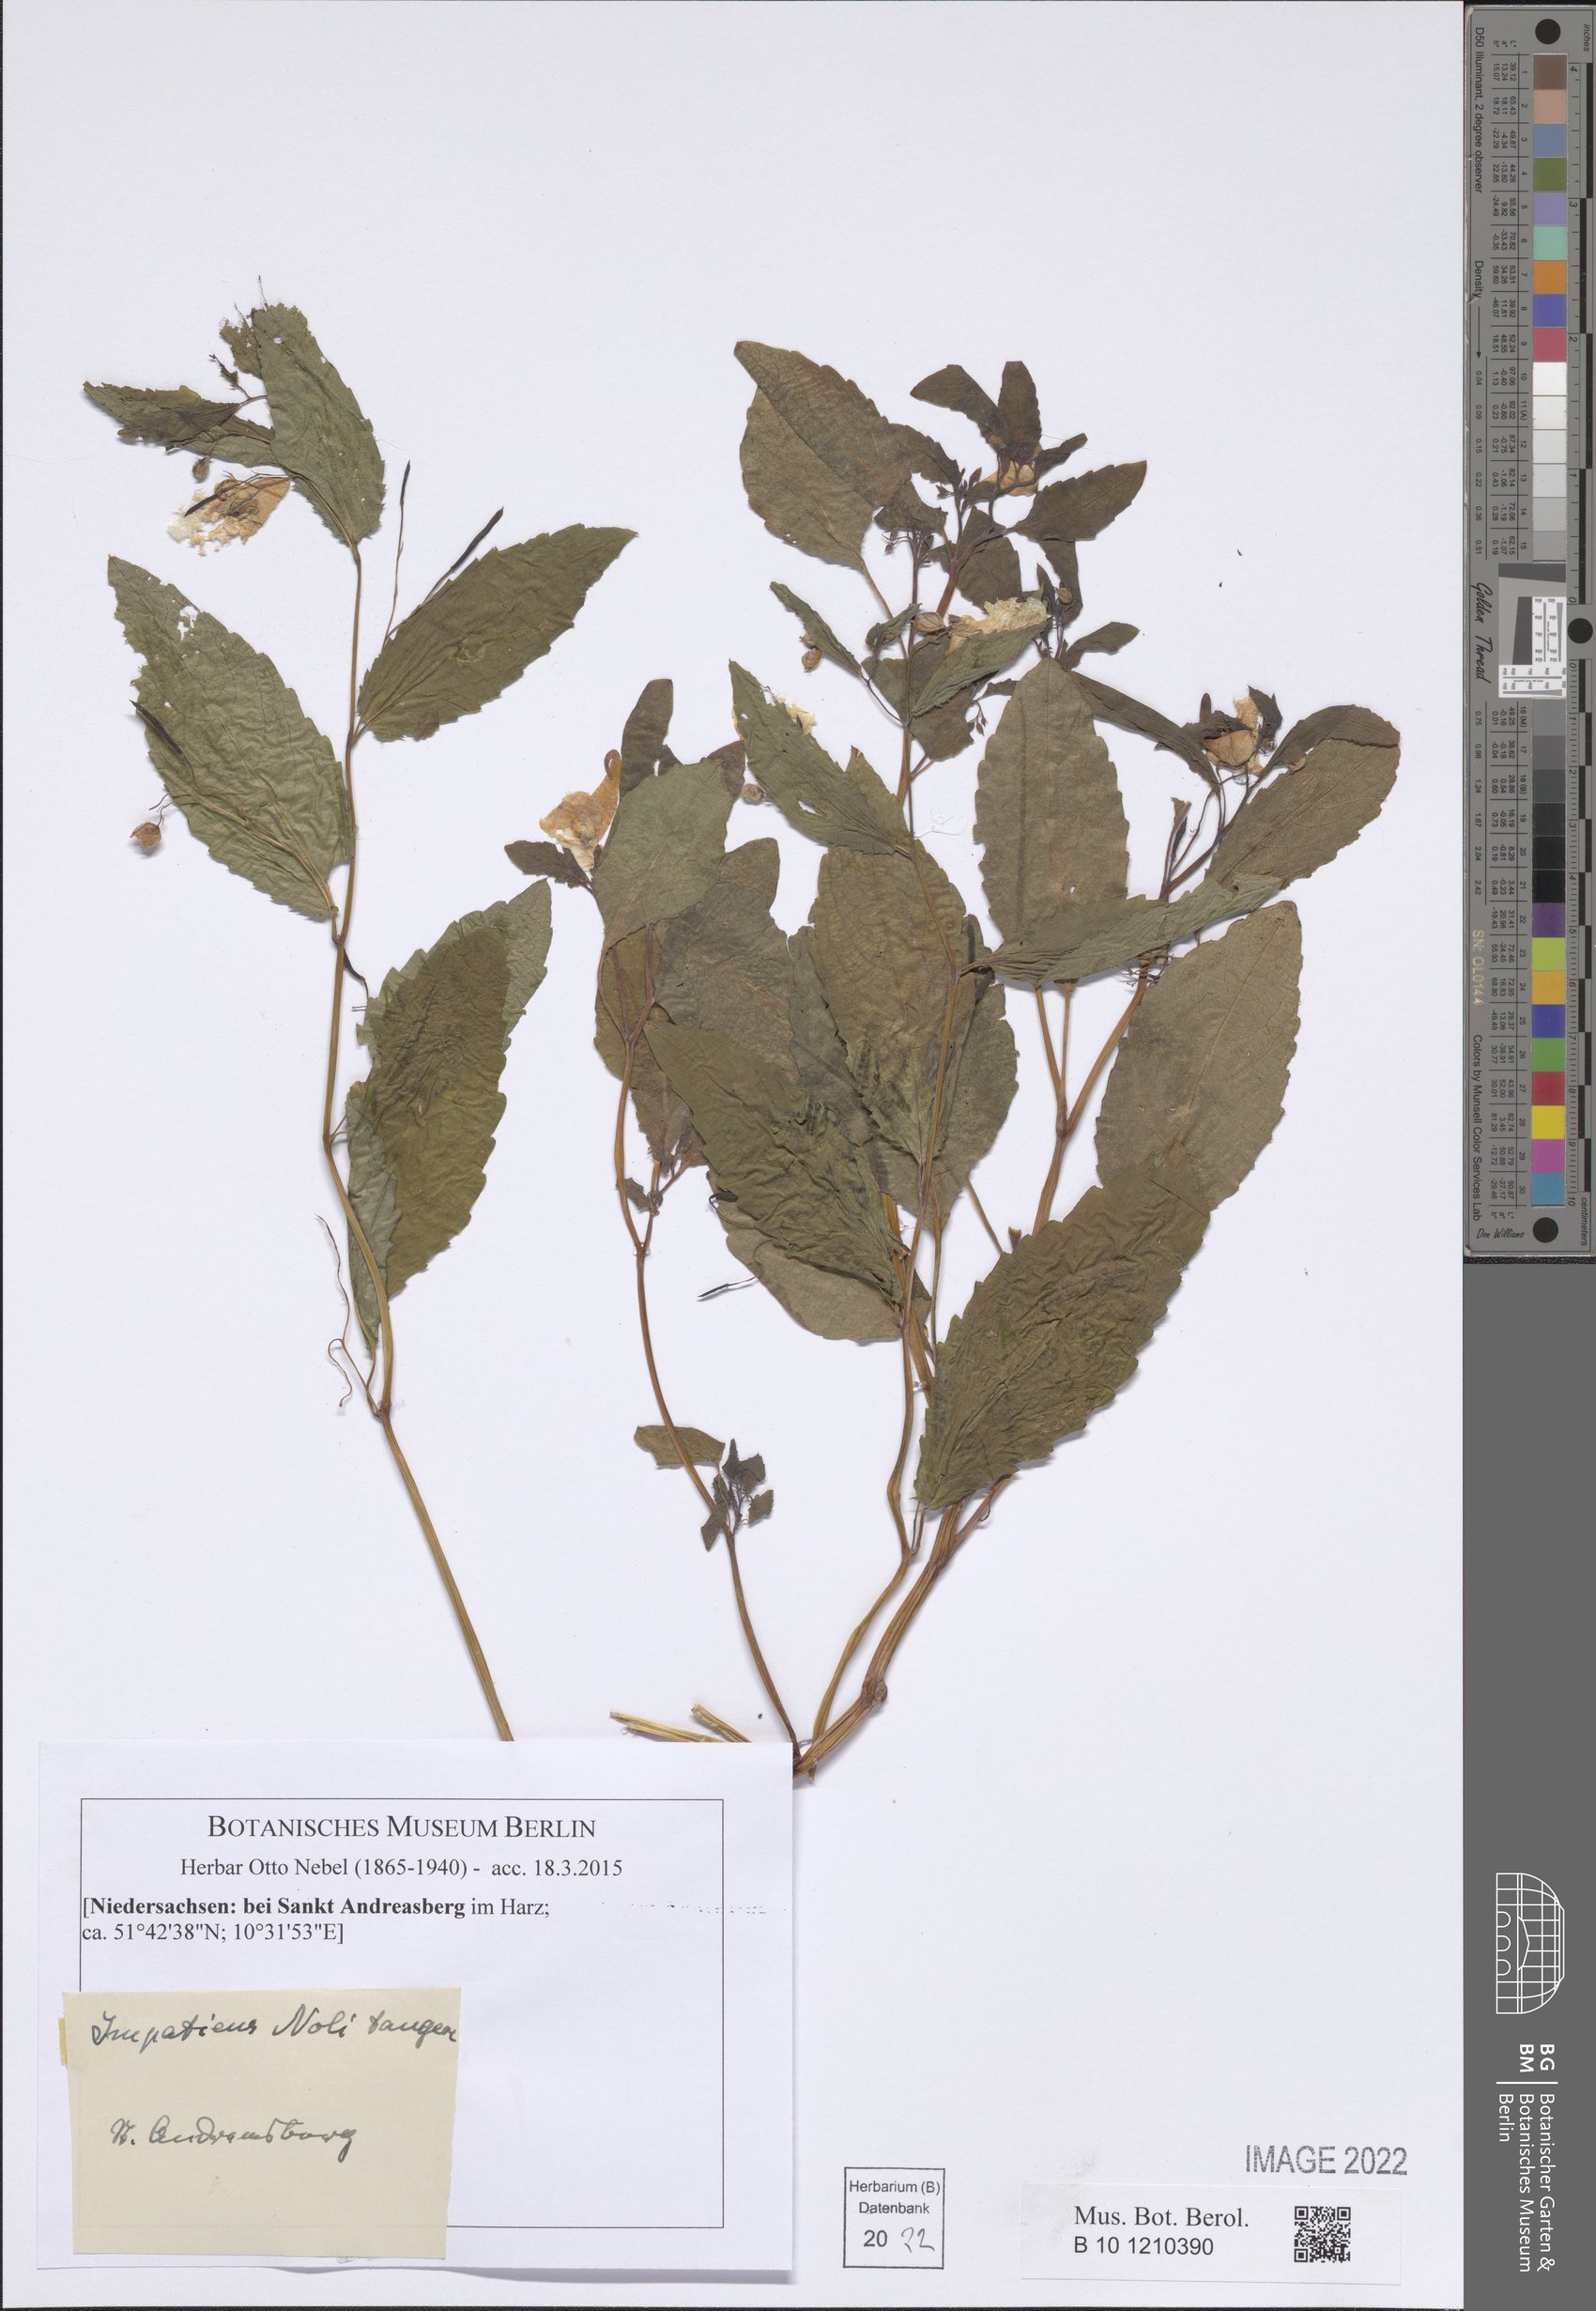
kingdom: Plantae
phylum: Tracheophyta
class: Magnoliopsida
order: Ericales
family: Balsaminaceae
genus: Impatiens
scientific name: Impatiens noli-tangere
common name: Touch-me-not balsam
